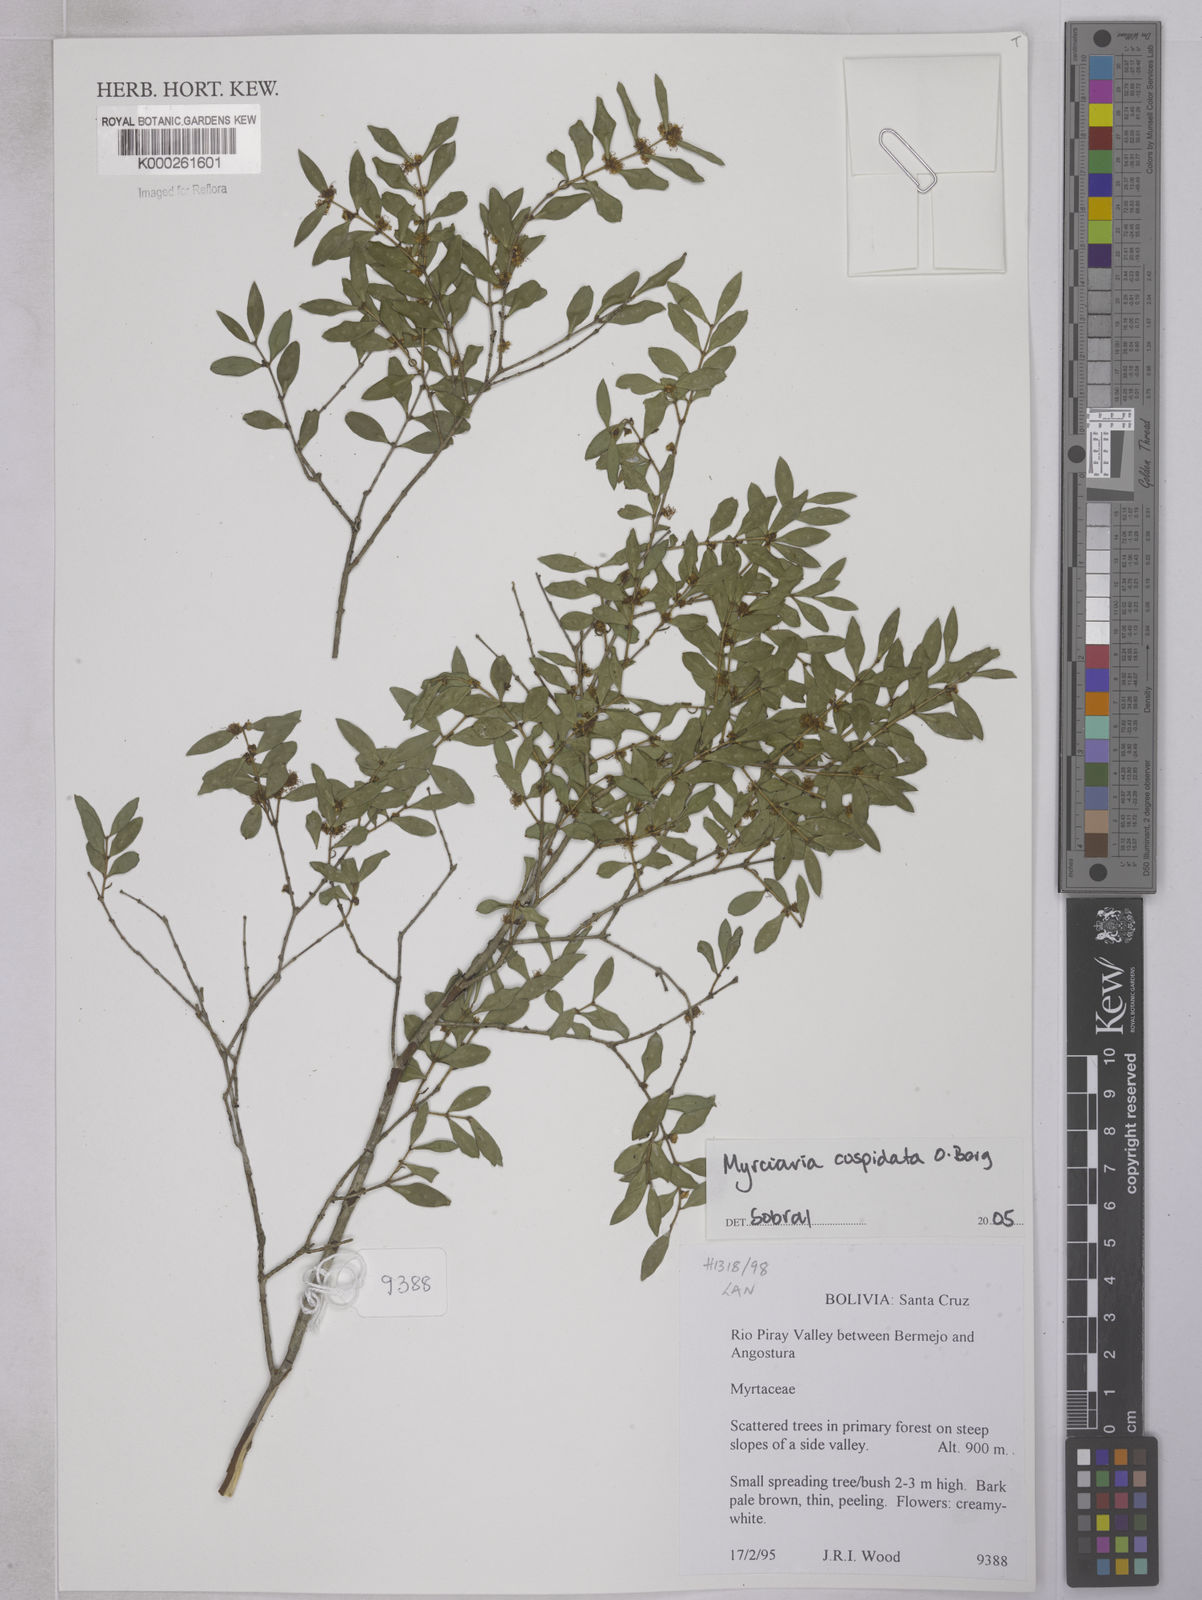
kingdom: Plantae
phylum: Tracheophyta
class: Magnoliopsida
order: Myrtales
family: Myrtaceae
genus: Myrciaria
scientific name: Myrciaria cuspidata
